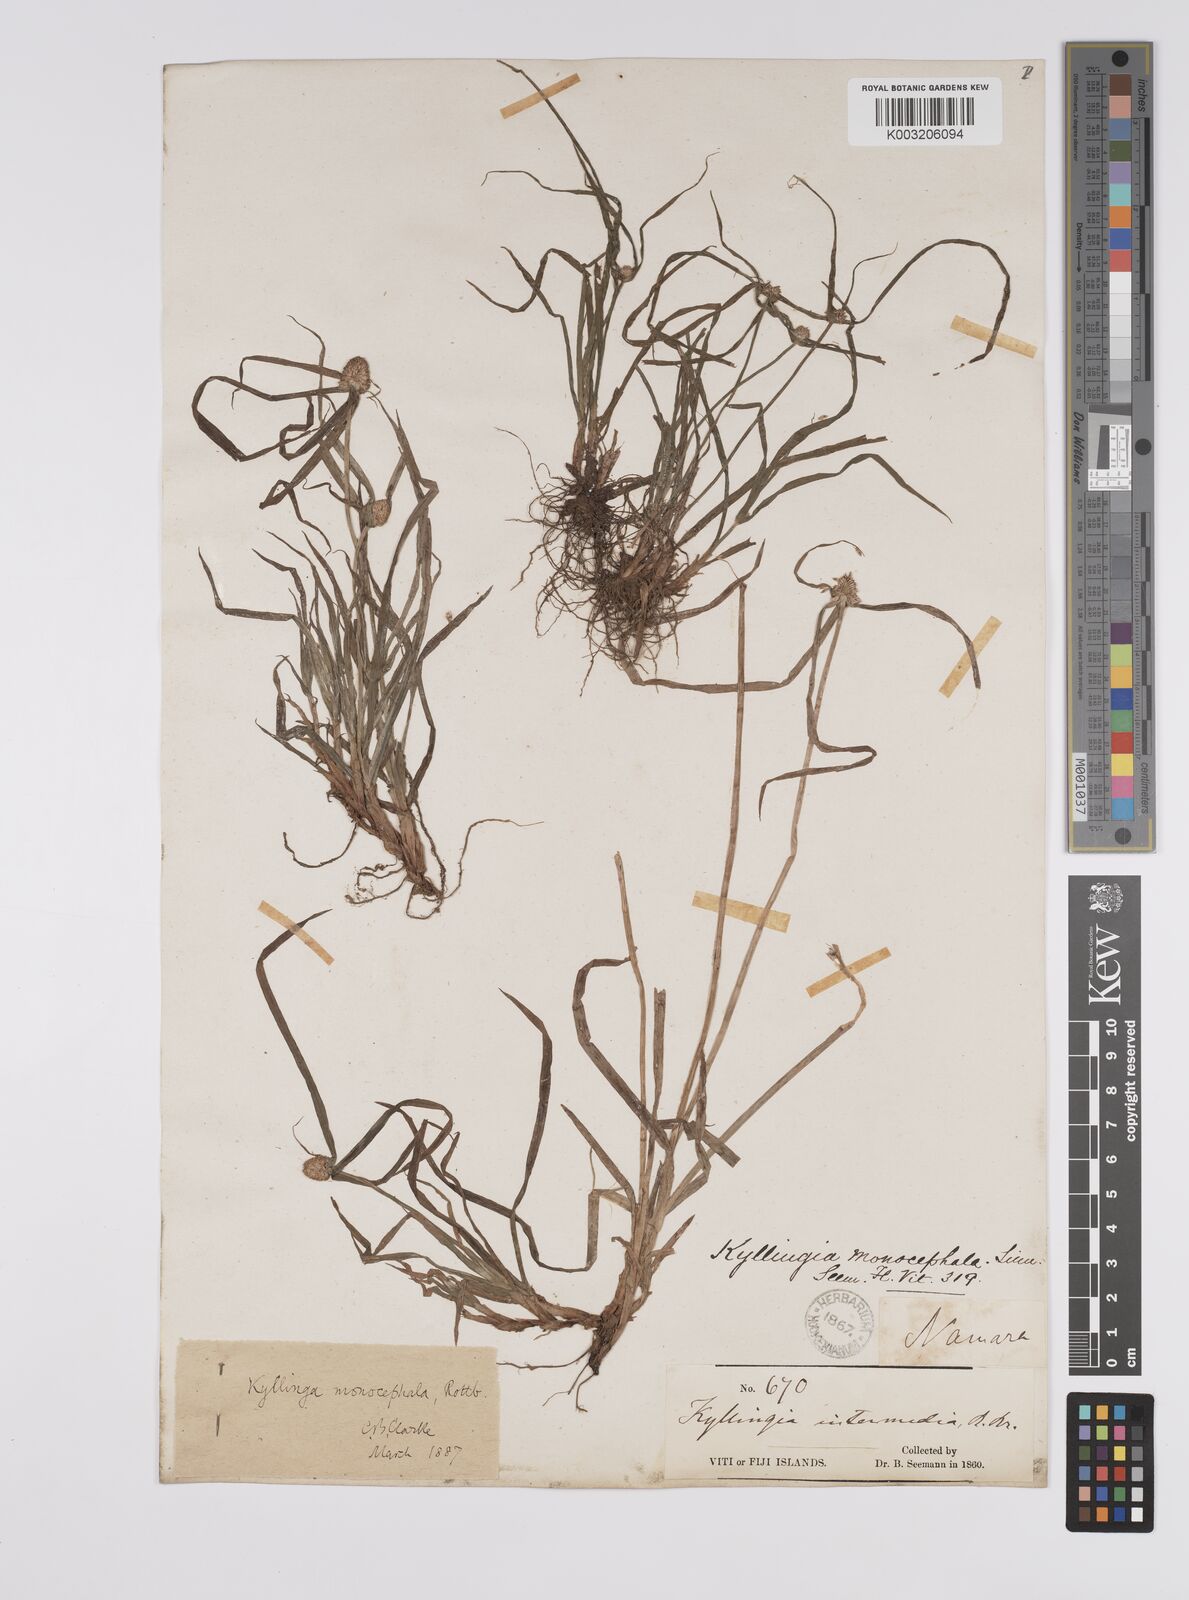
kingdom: Plantae
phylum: Tracheophyta
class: Liliopsida
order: Poales
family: Cyperaceae
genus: Cyperus
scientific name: Cyperus nemoralis
